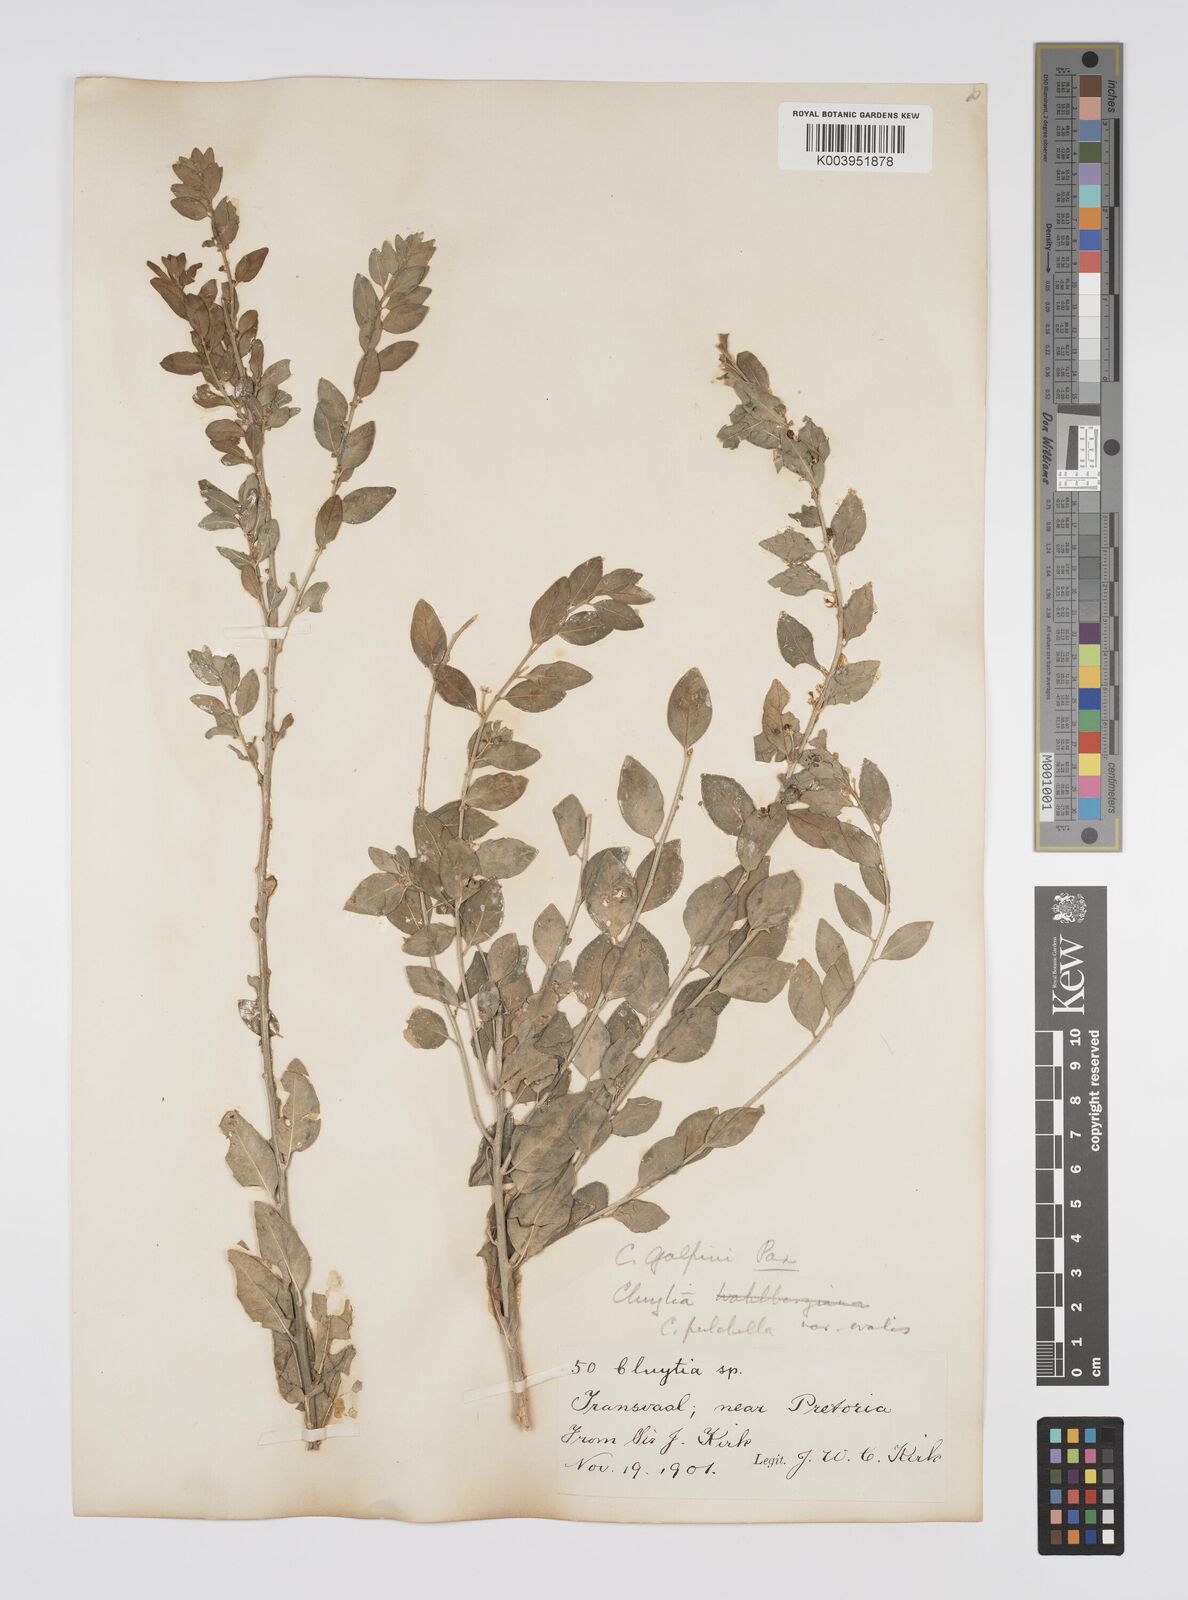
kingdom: Plantae
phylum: Tracheophyta
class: Magnoliopsida
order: Malpighiales
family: Peraceae
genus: Clutia
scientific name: Clutia galpinii
